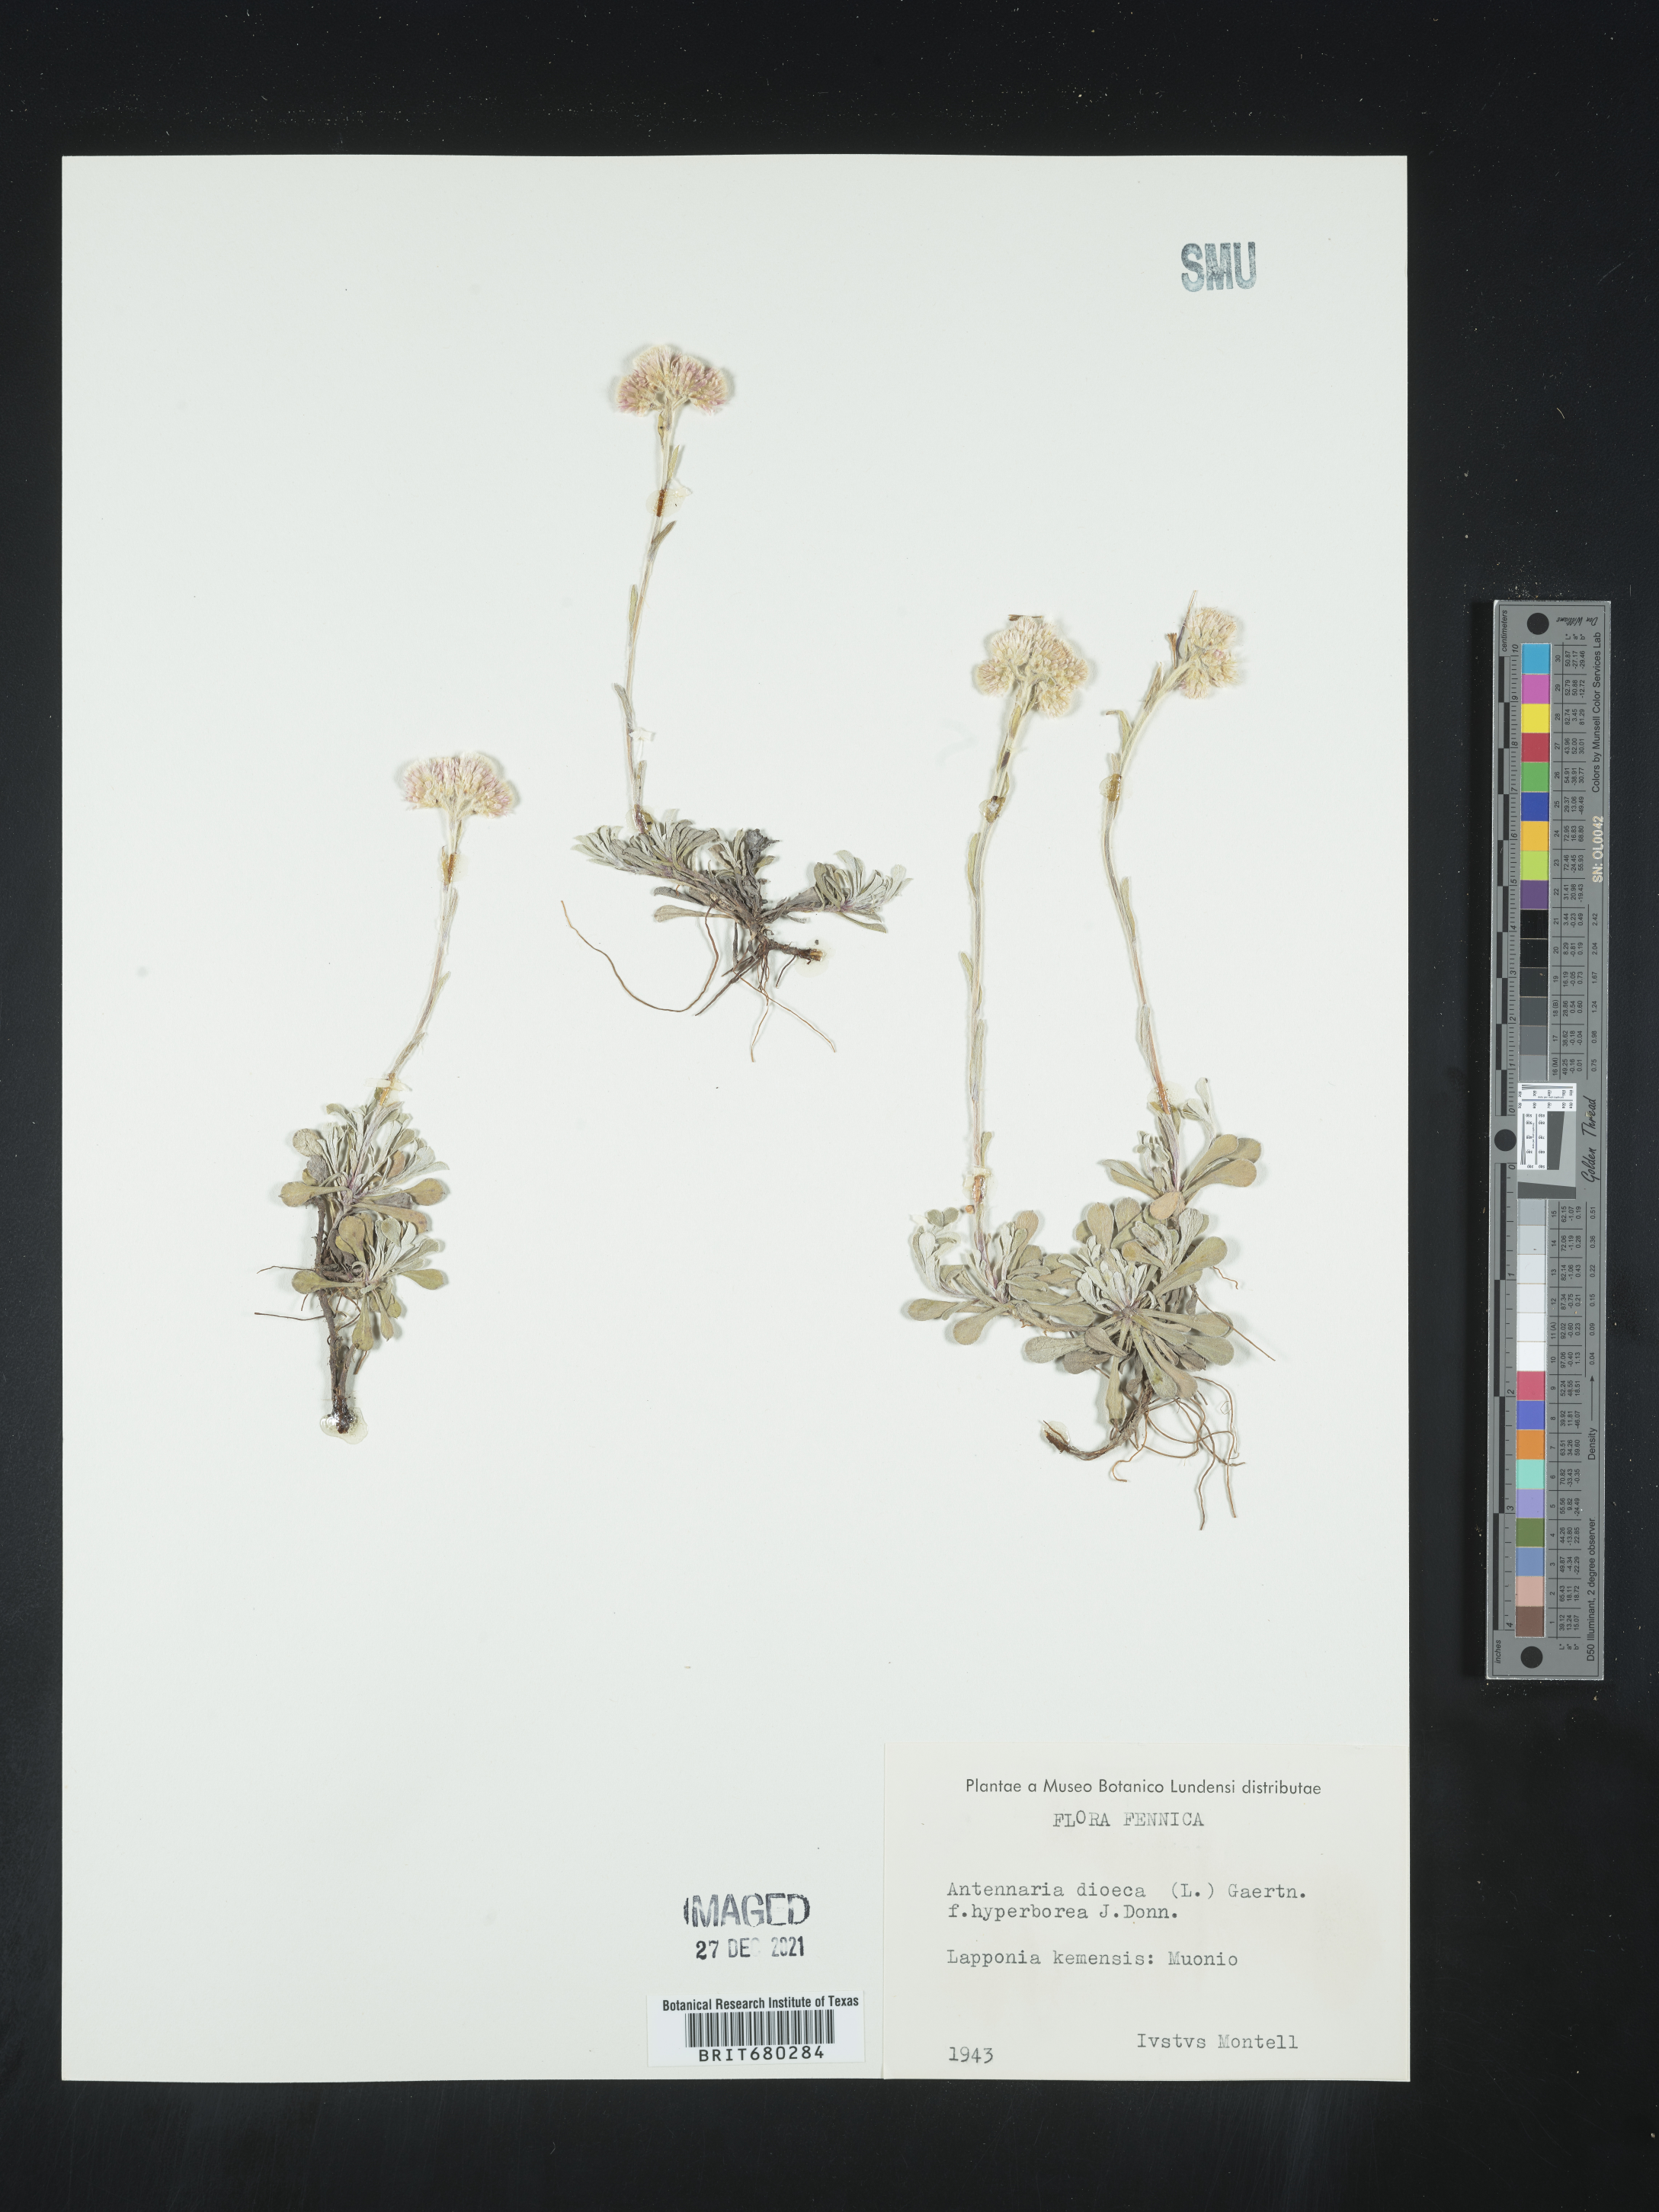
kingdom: Plantae
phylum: Tracheophyta
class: Magnoliopsida
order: Asterales
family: Asteraceae
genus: Antennaria
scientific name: Antennaria dioica
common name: Mountain everlasting
